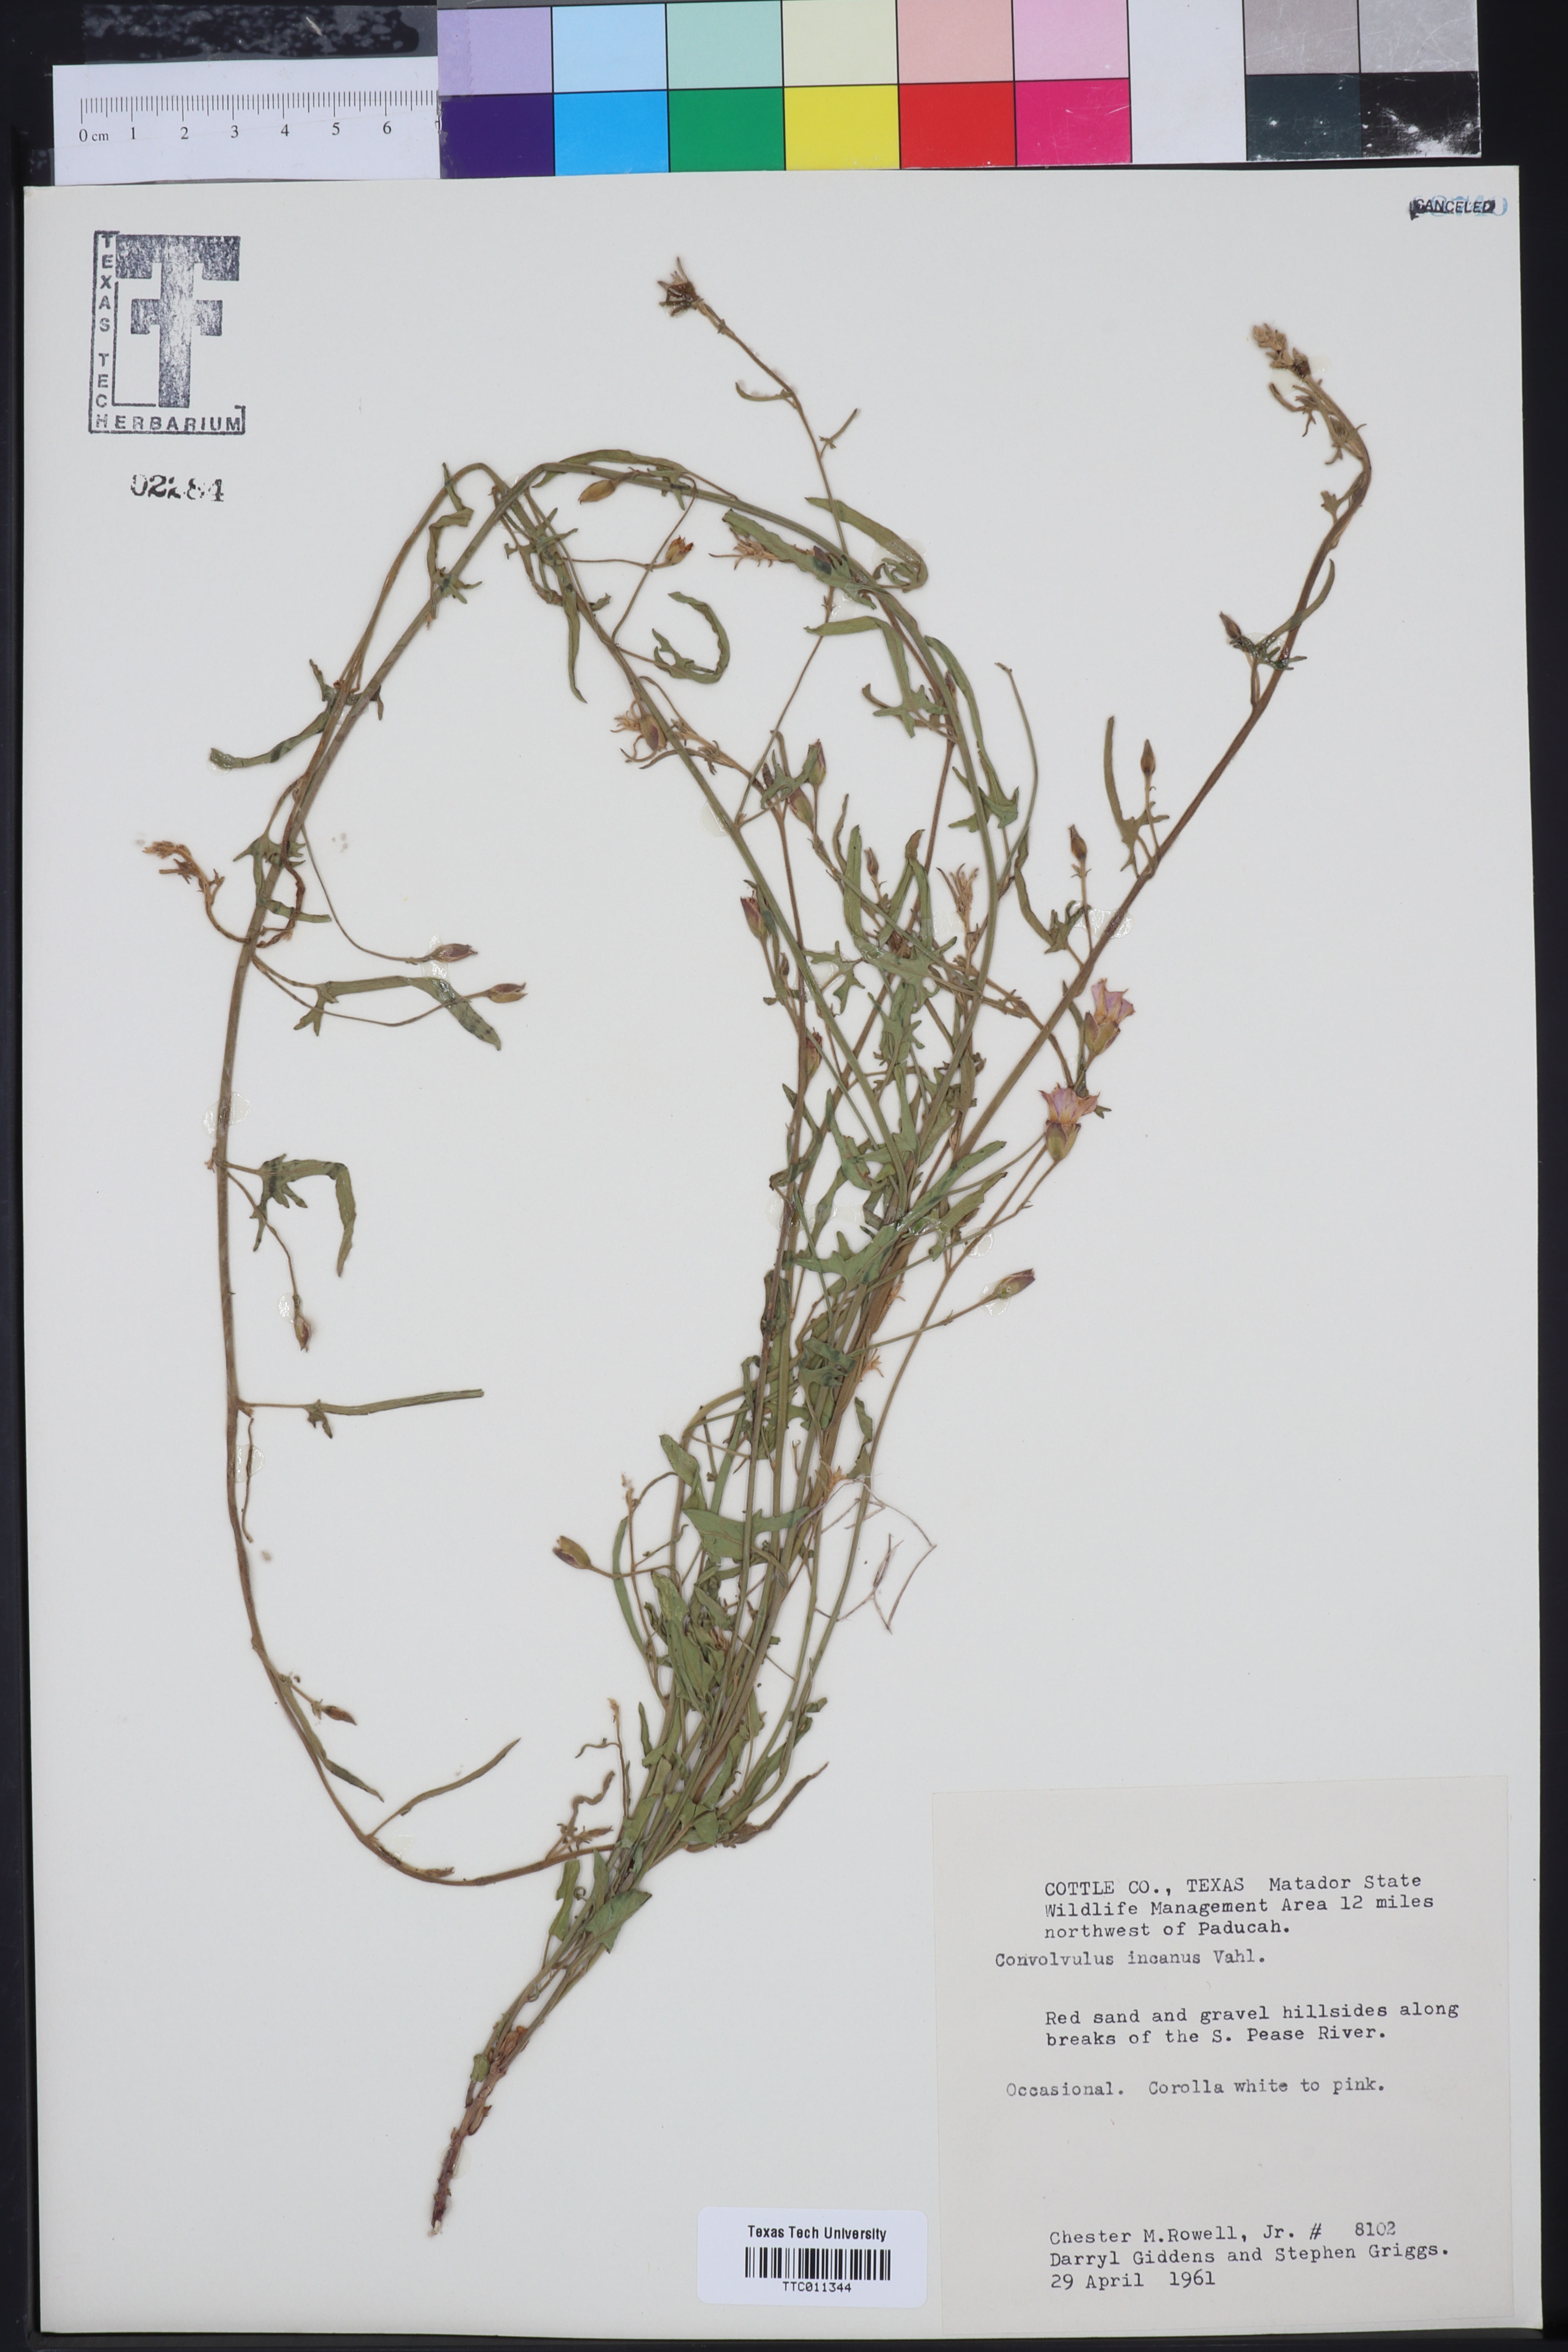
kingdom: Plantae
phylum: Tracheophyta
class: Magnoliopsida
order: Solanales
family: Convolvulaceae
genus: Convolvulus
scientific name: Convolvulus hermanniae
